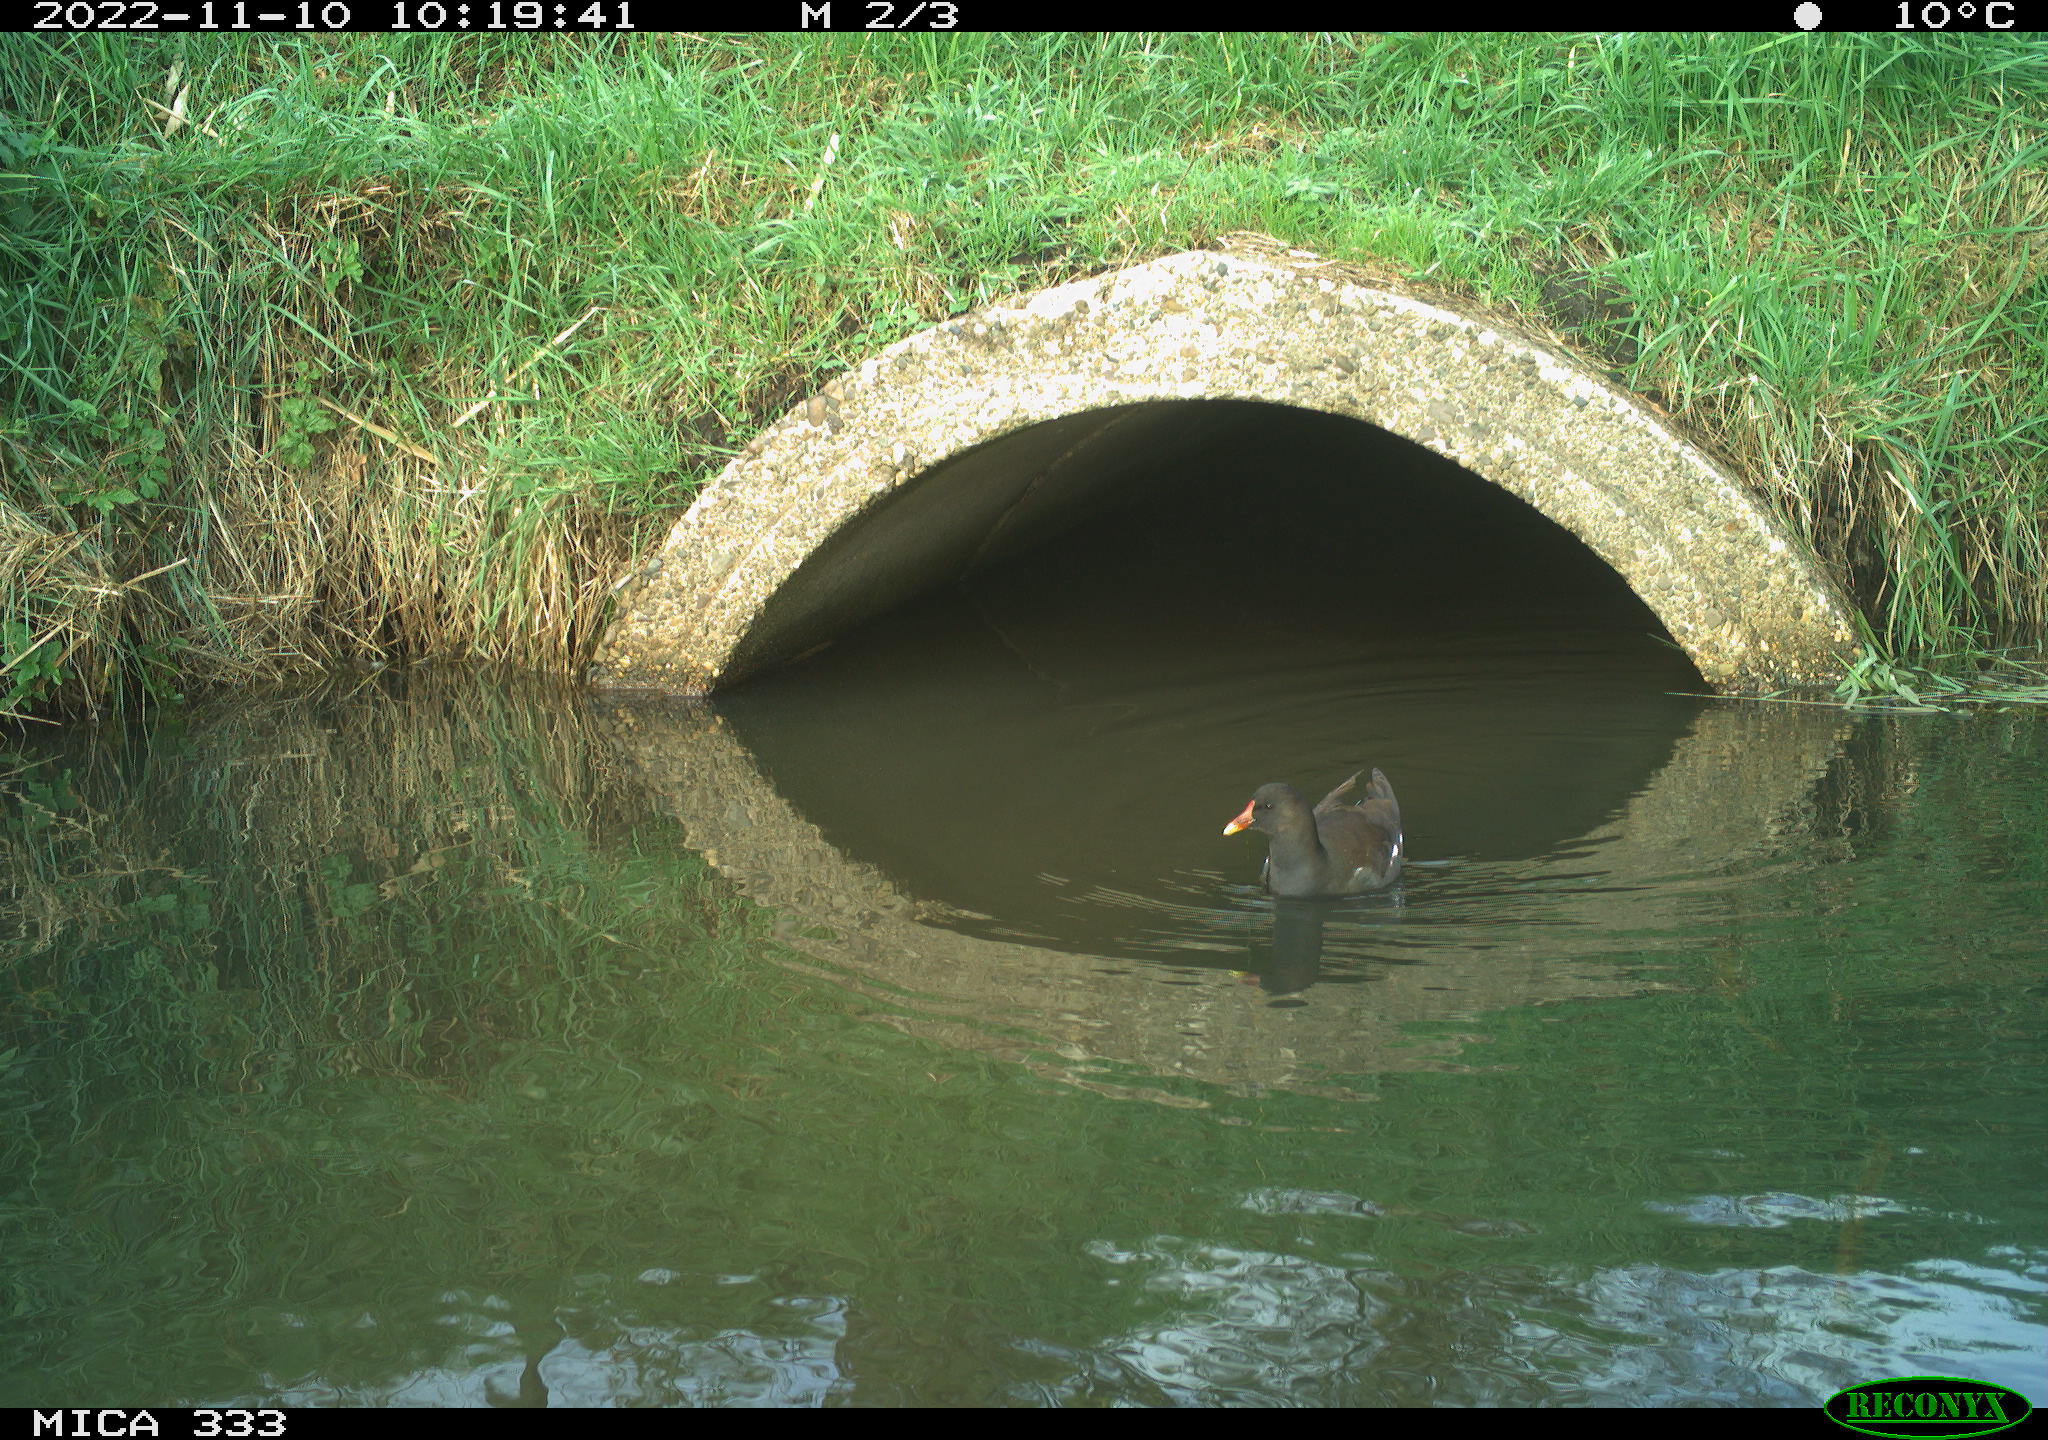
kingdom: Animalia
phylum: Chordata
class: Aves
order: Gruiformes
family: Rallidae
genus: Gallinula
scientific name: Gallinula chloropus
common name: Common moorhen
